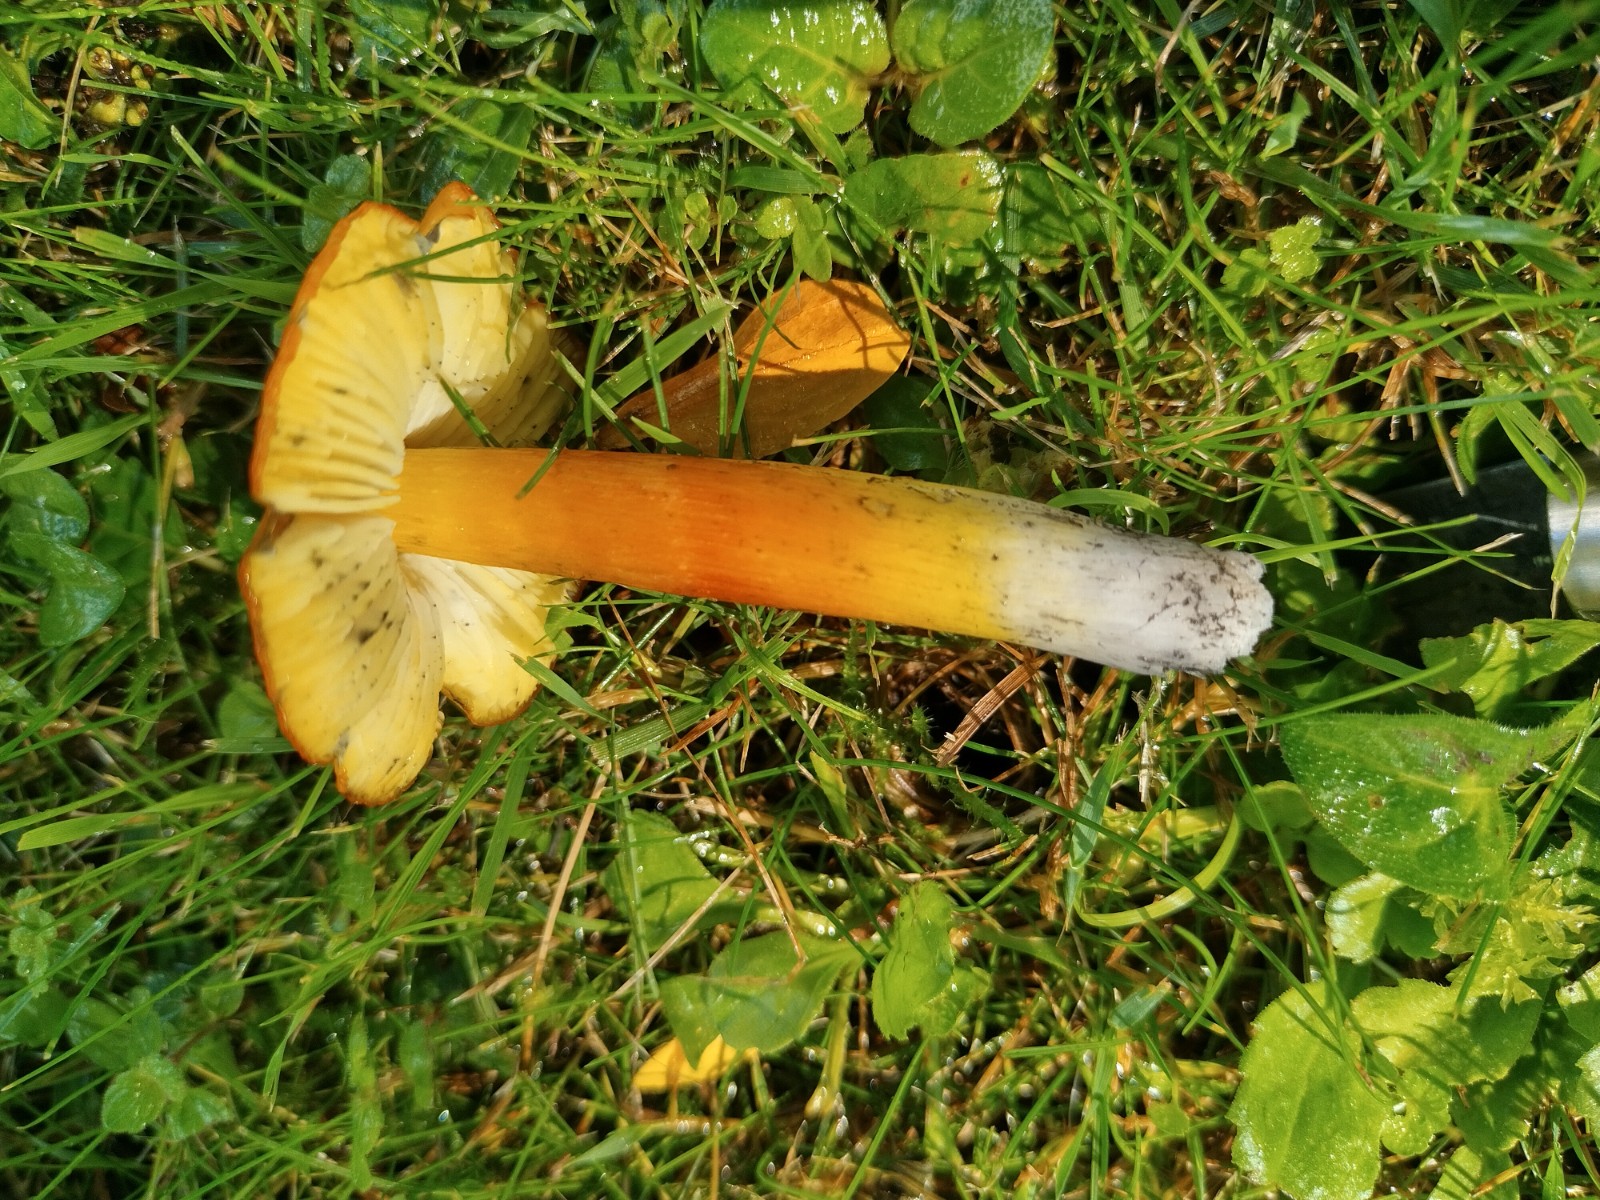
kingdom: Fungi
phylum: Basidiomycota
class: Agaricomycetes
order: Agaricales
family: Hygrophoraceae
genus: Hygrocybe
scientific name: Hygrocybe conica
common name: kegle-vokshat
